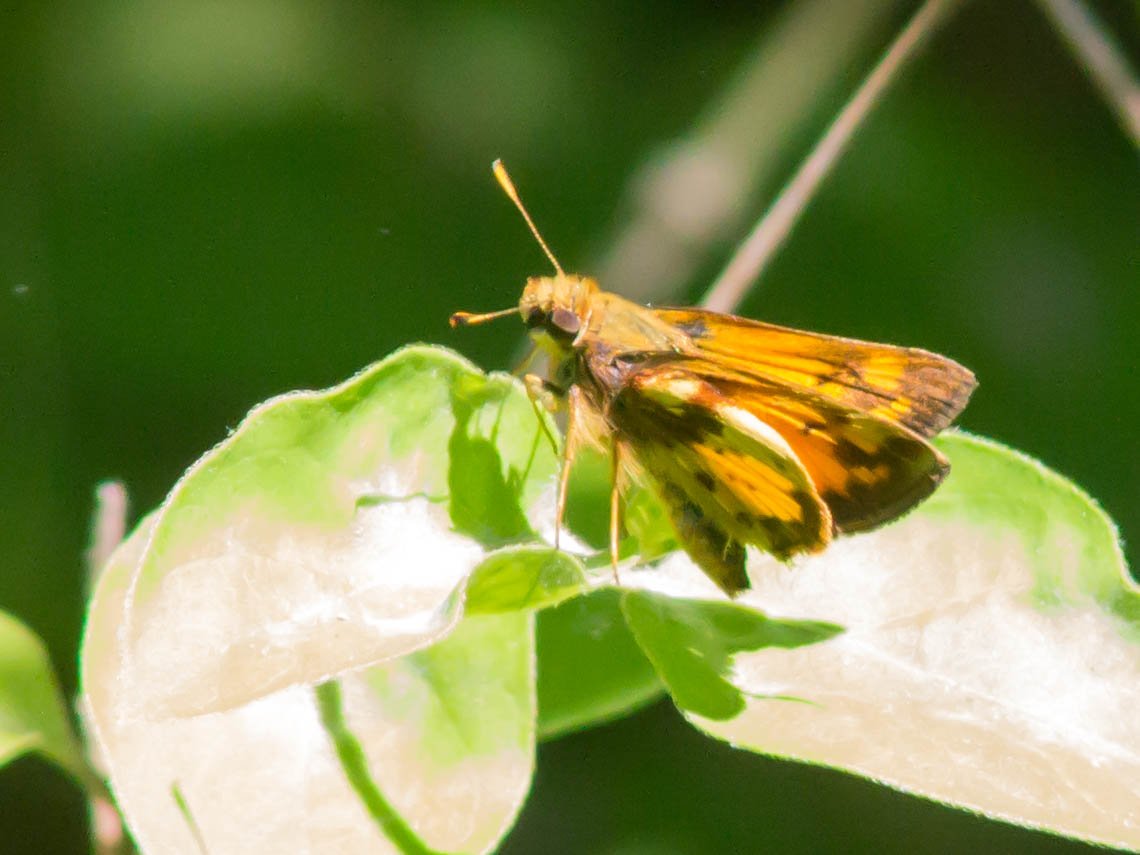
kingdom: Animalia
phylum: Arthropoda
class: Insecta
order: Lepidoptera
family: Hesperiidae
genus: Lon
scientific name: Lon zabulon
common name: Zabulon Skipper
